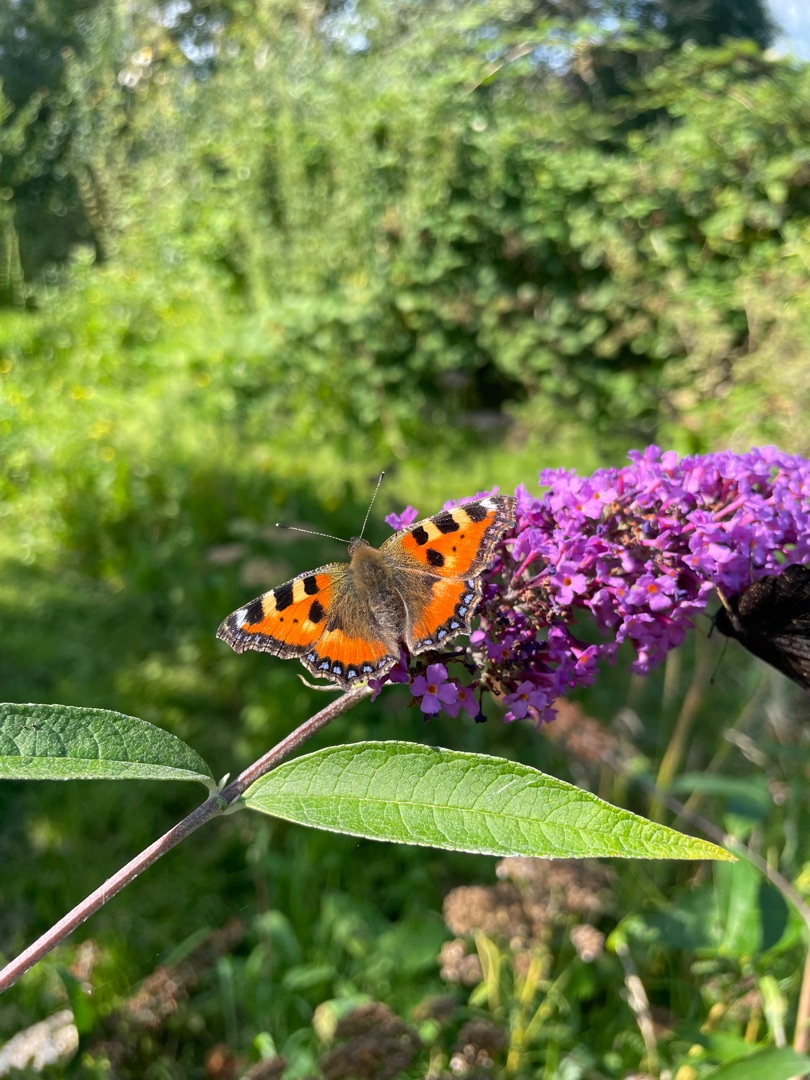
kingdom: Animalia
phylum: Arthropoda
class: Insecta
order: Lepidoptera
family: Nymphalidae
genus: Aglais
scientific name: Aglais urticae
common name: Nældens takvinge
